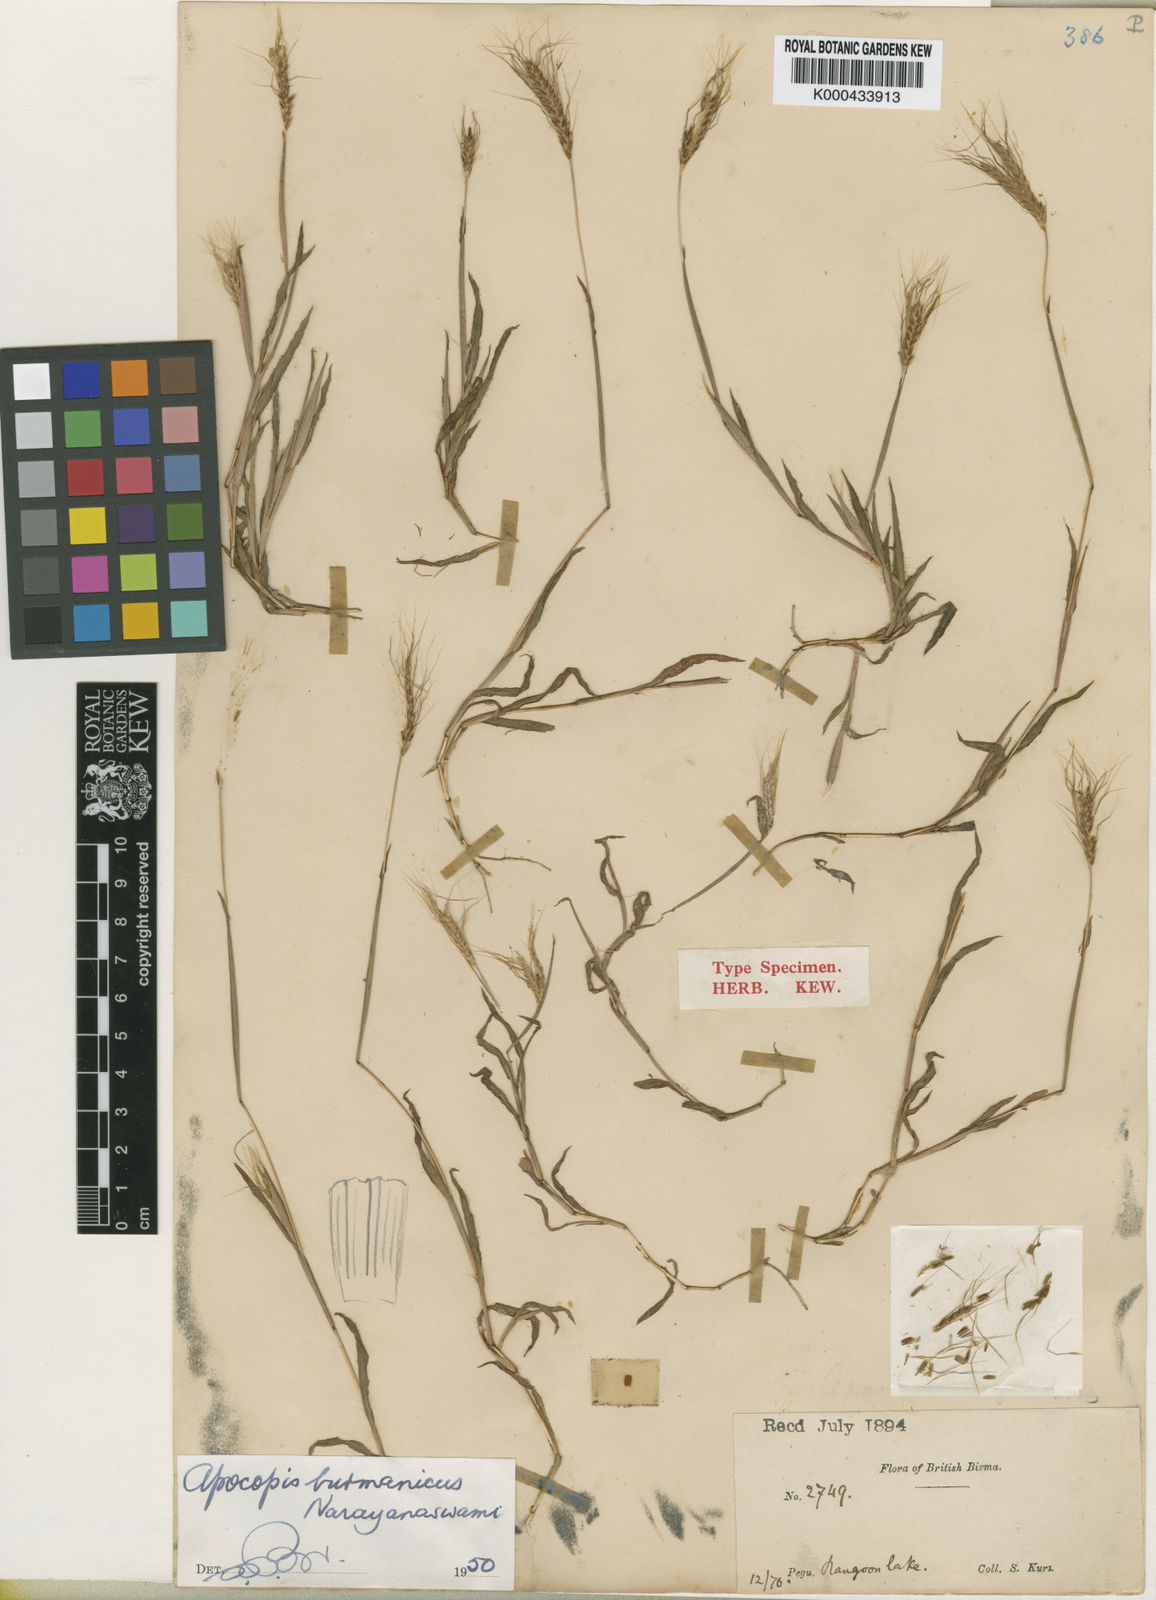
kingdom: Plantae
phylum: Tracheophyta
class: Liliopsida
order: Poales
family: Poaceae
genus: Apocopis
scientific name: Apocopis burmanicus
